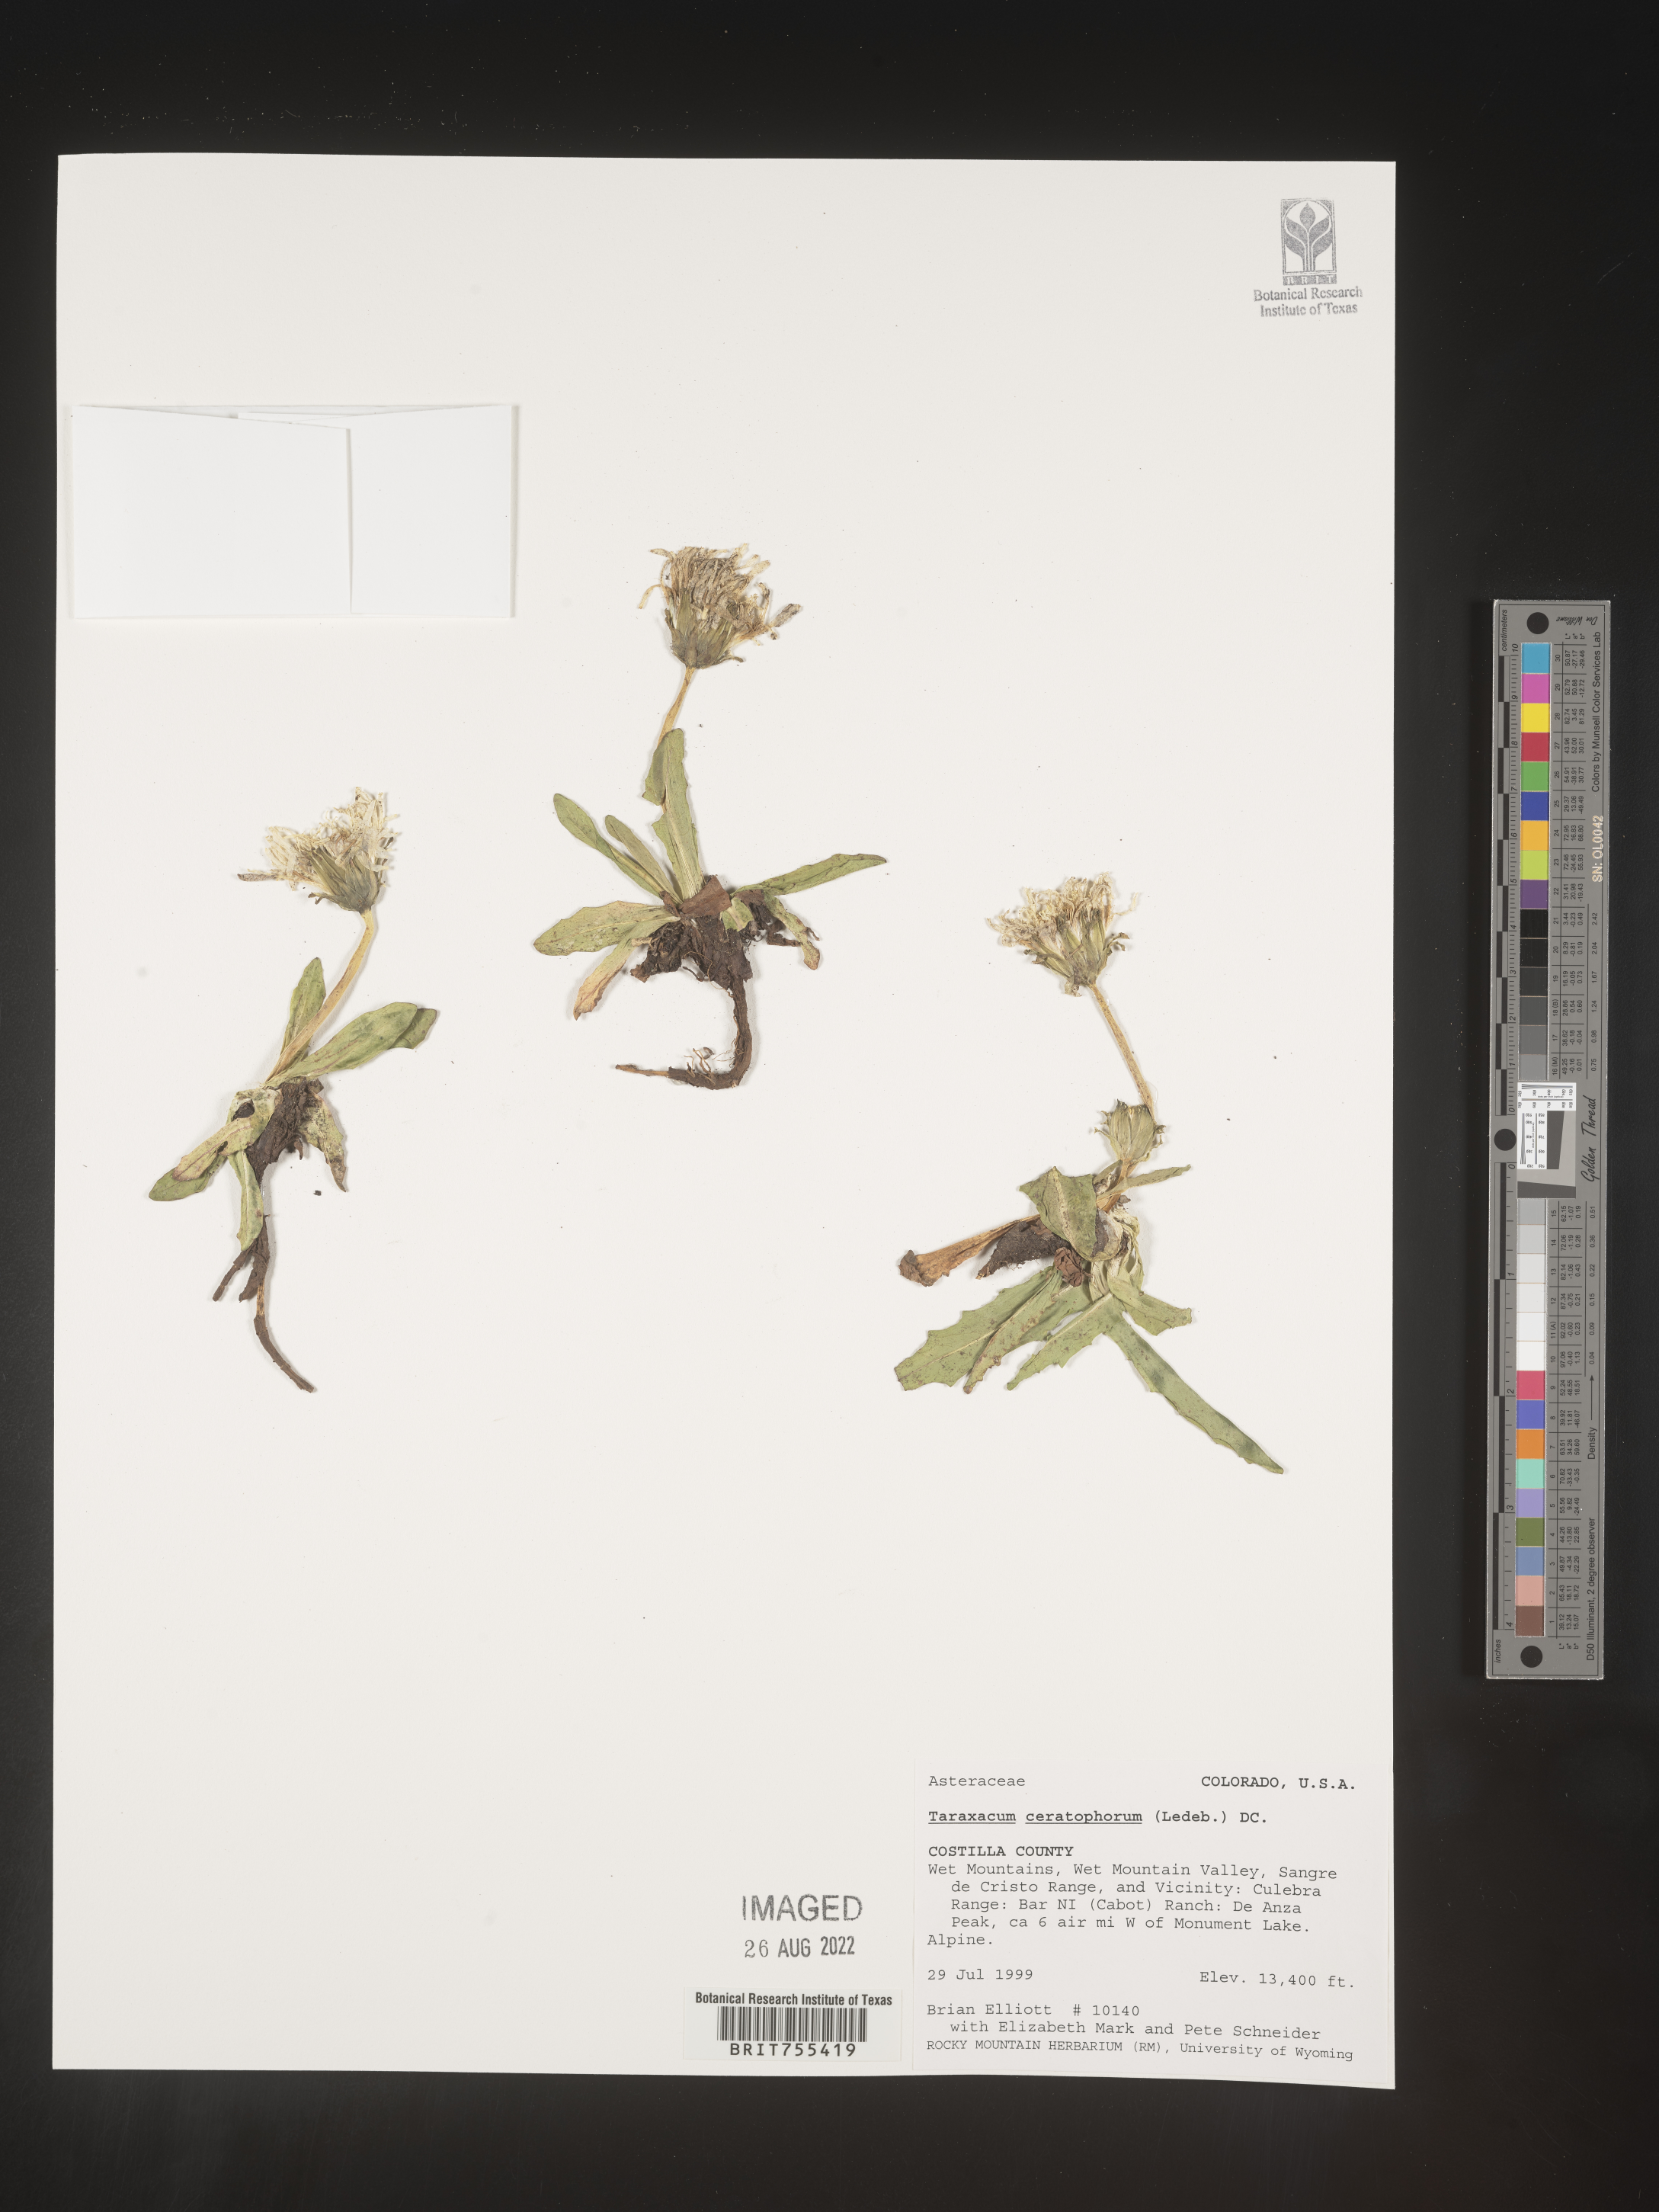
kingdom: Plantae
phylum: Tracheophyta
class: Magnoliopsida
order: Asterales
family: Asteraceae
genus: Taraxacum
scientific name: Taraxacum
